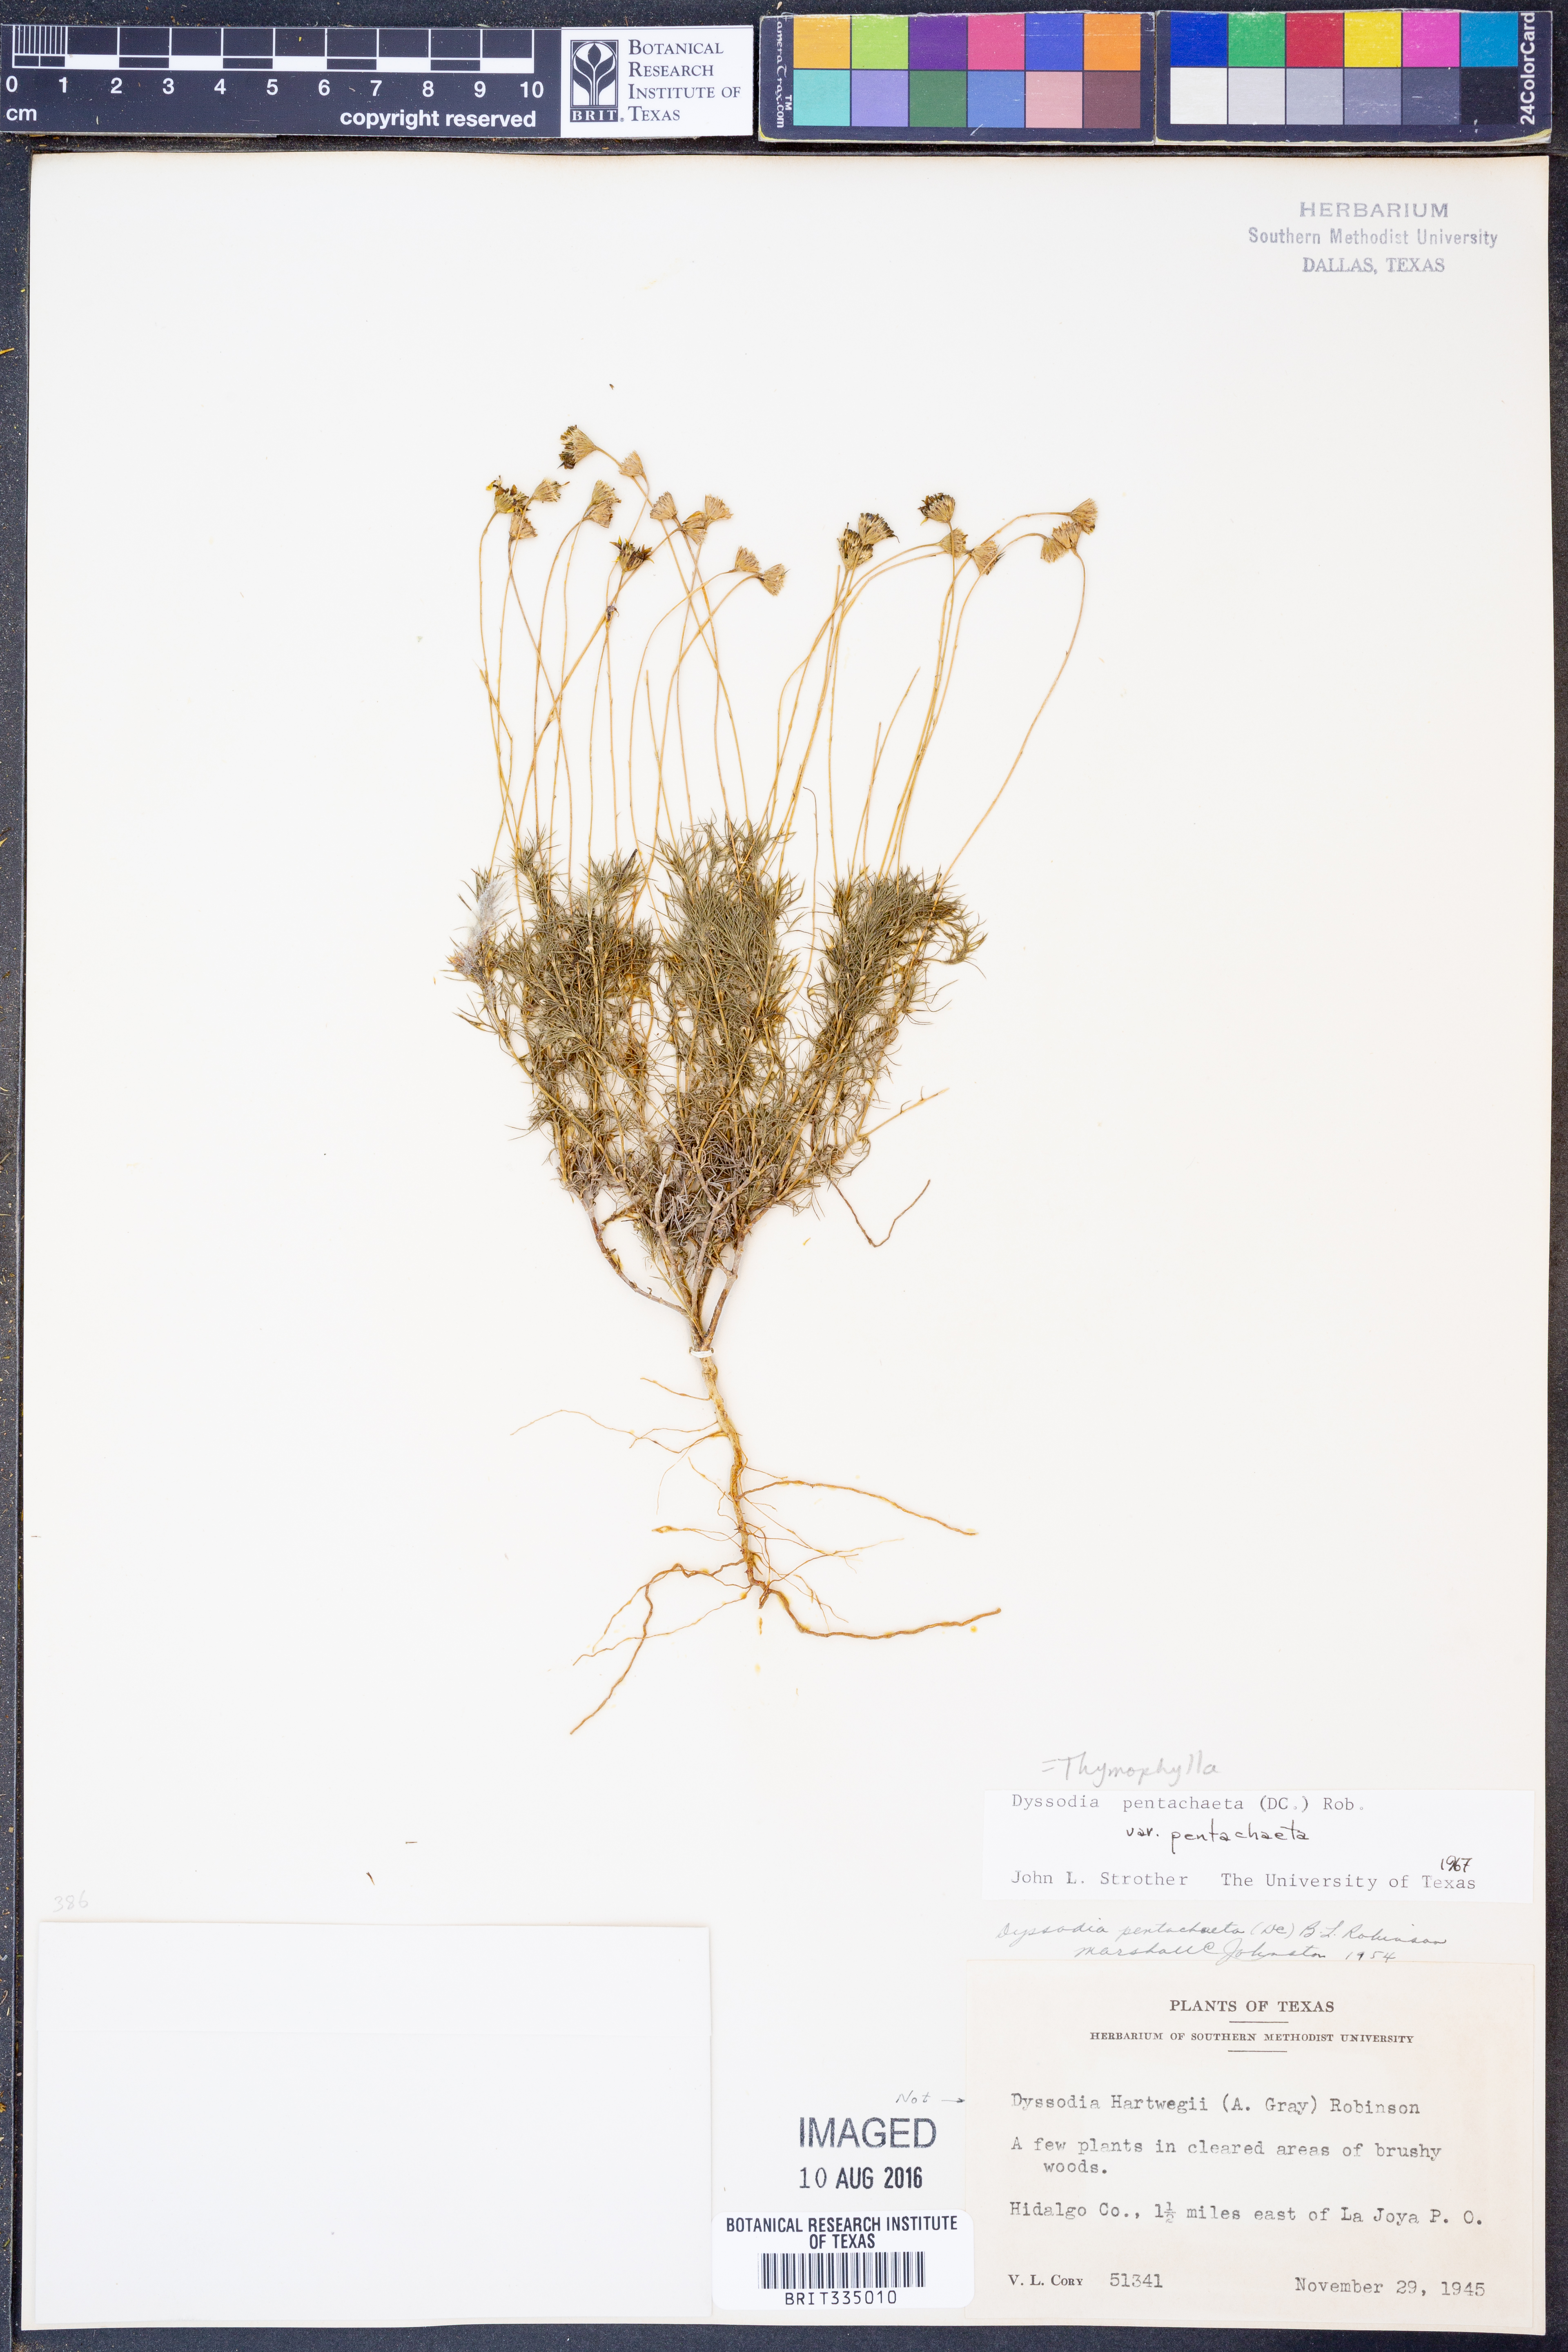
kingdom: Plantae
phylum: Tracheophyta
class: Magnoliopsida
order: Asterales
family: Asteraceae
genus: Thymophylla
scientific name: Thymophylla pentachaeta
